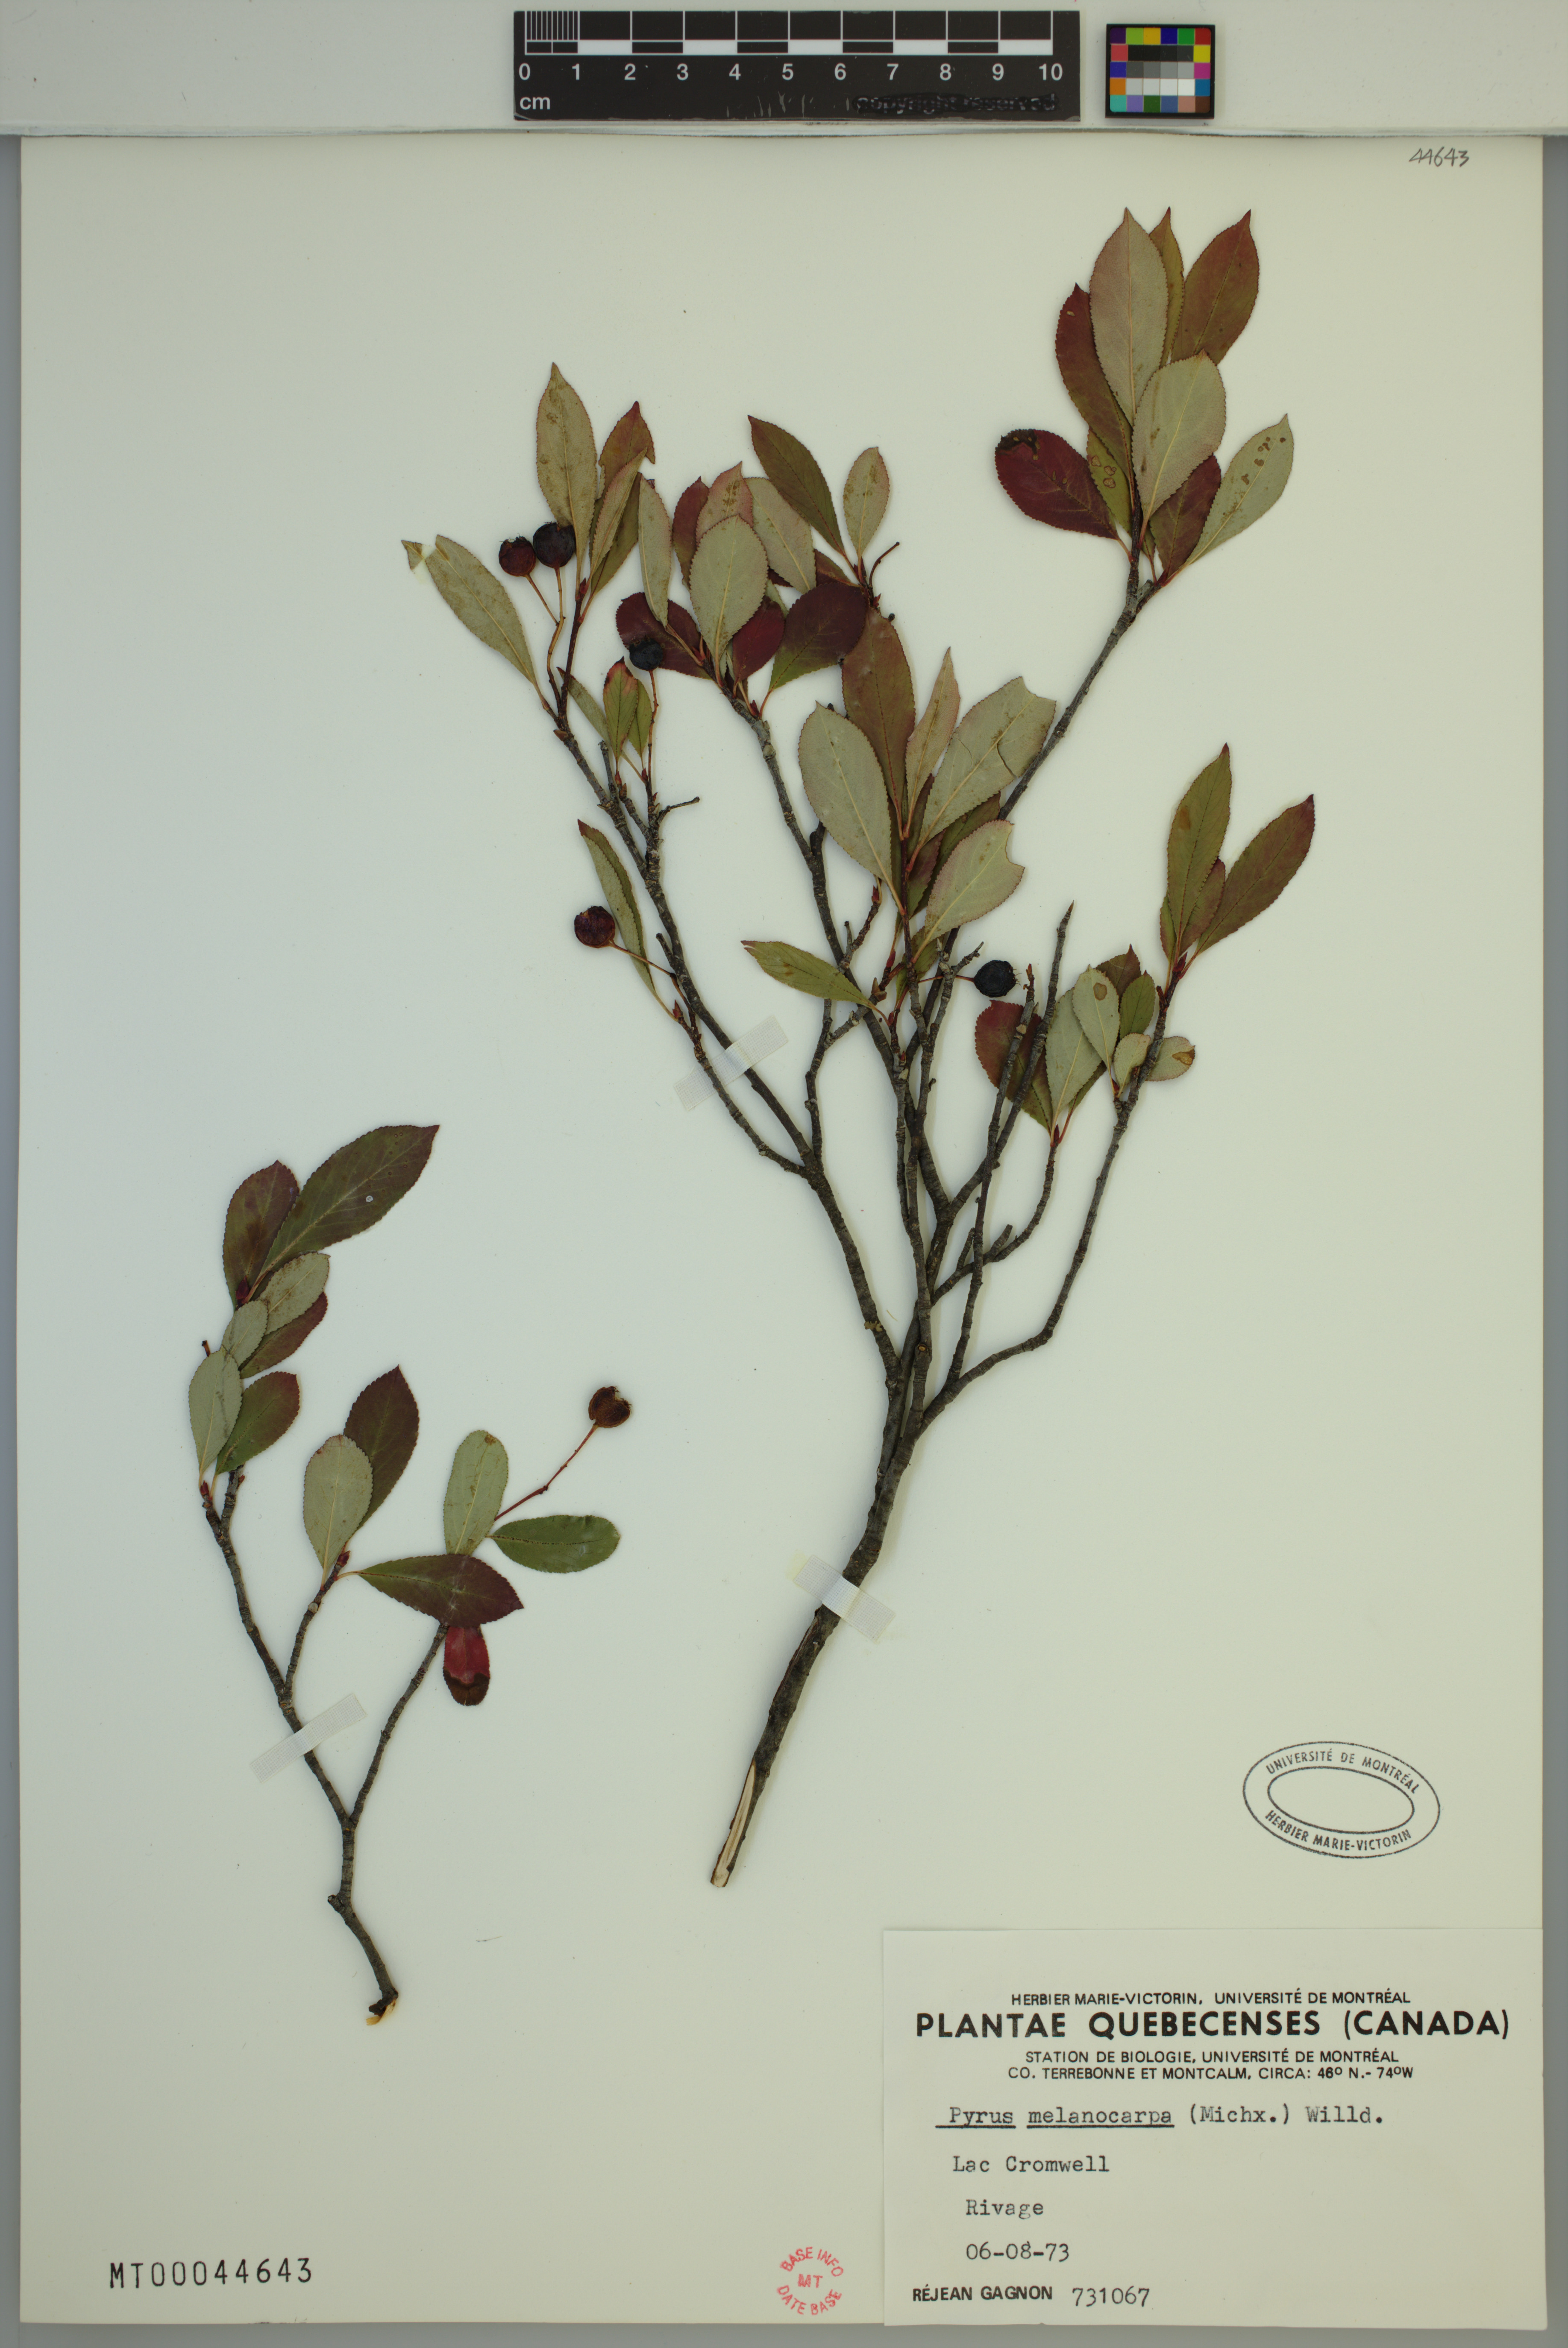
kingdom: Plantae
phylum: Tracheophyta
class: Magnoliopsida
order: Rosales
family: Rosaceae
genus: Aronia
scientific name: Aronia melanocarpa
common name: Black chokeberry
